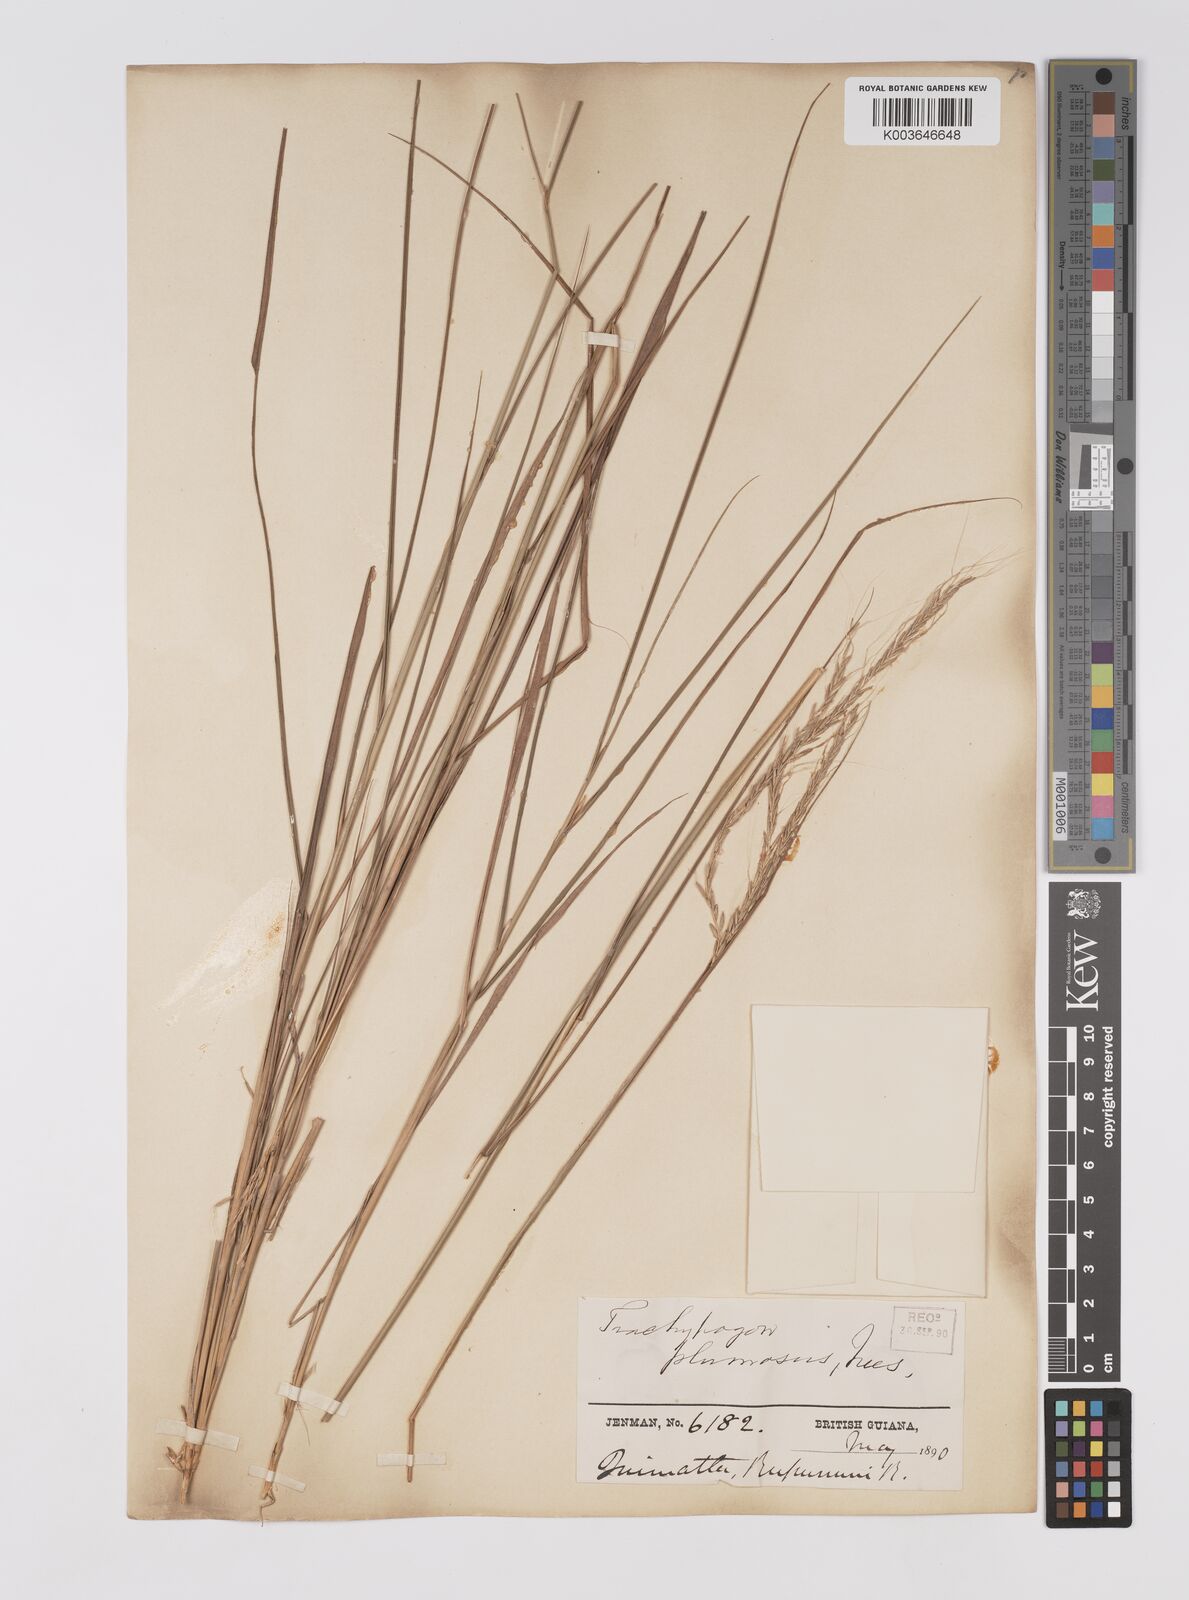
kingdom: Plantae
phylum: Tracheophyta
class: Liliopsida
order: Poales
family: Poaceae
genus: Trachypogon
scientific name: Trachypogon spicatus
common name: Crinkle-awn
